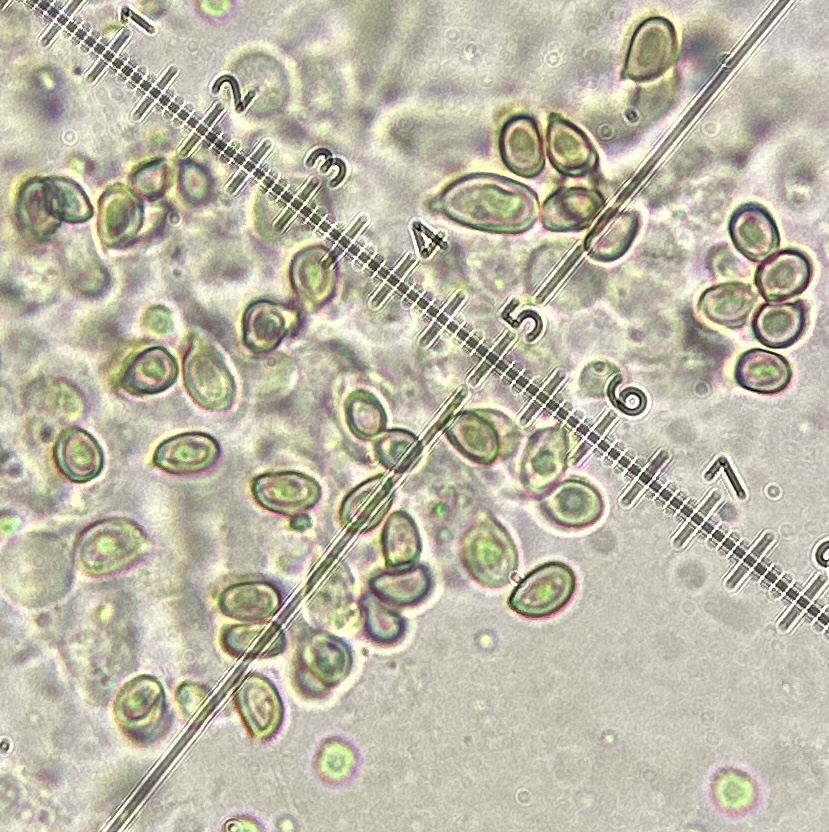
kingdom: Fungi
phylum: Basidiomycota
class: Agaricomycetes
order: Agaricales
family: Agaricaceae
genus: Agaricus
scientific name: Agaricus
